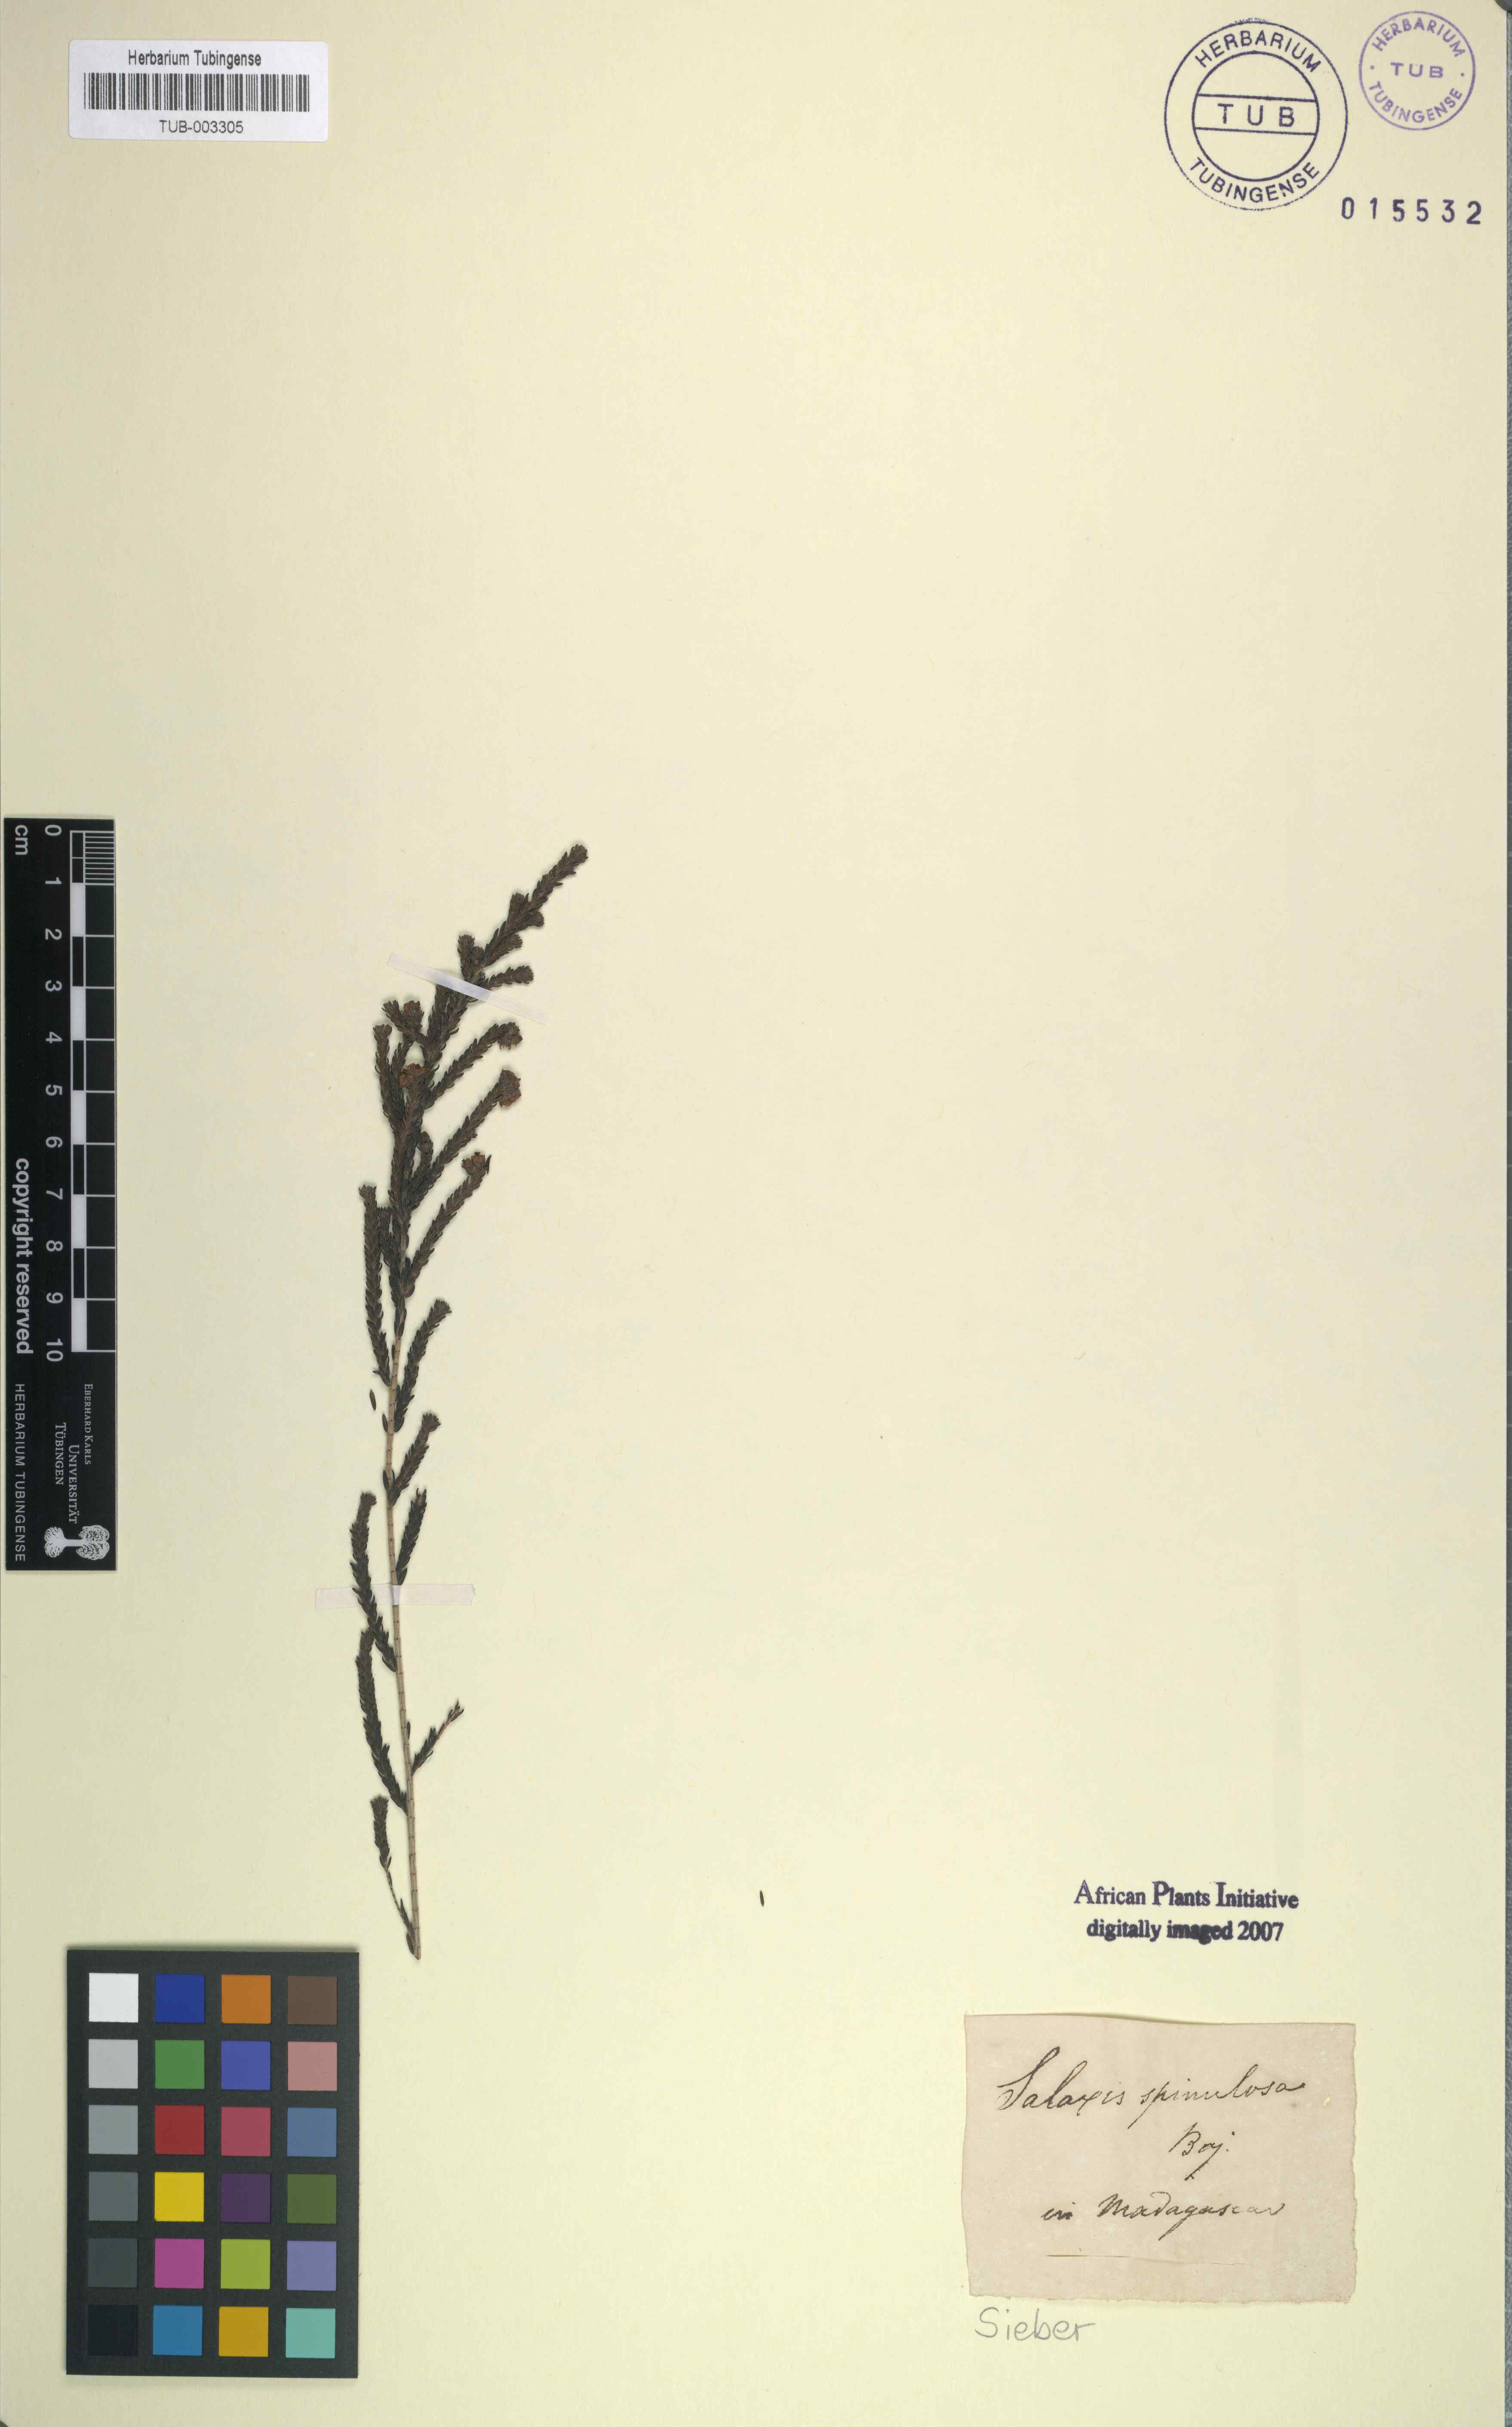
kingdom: Plantae
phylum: Tracheophyta
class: Magnoliopsida
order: Ericales
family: Ericaceae
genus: Erica
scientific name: Erica
